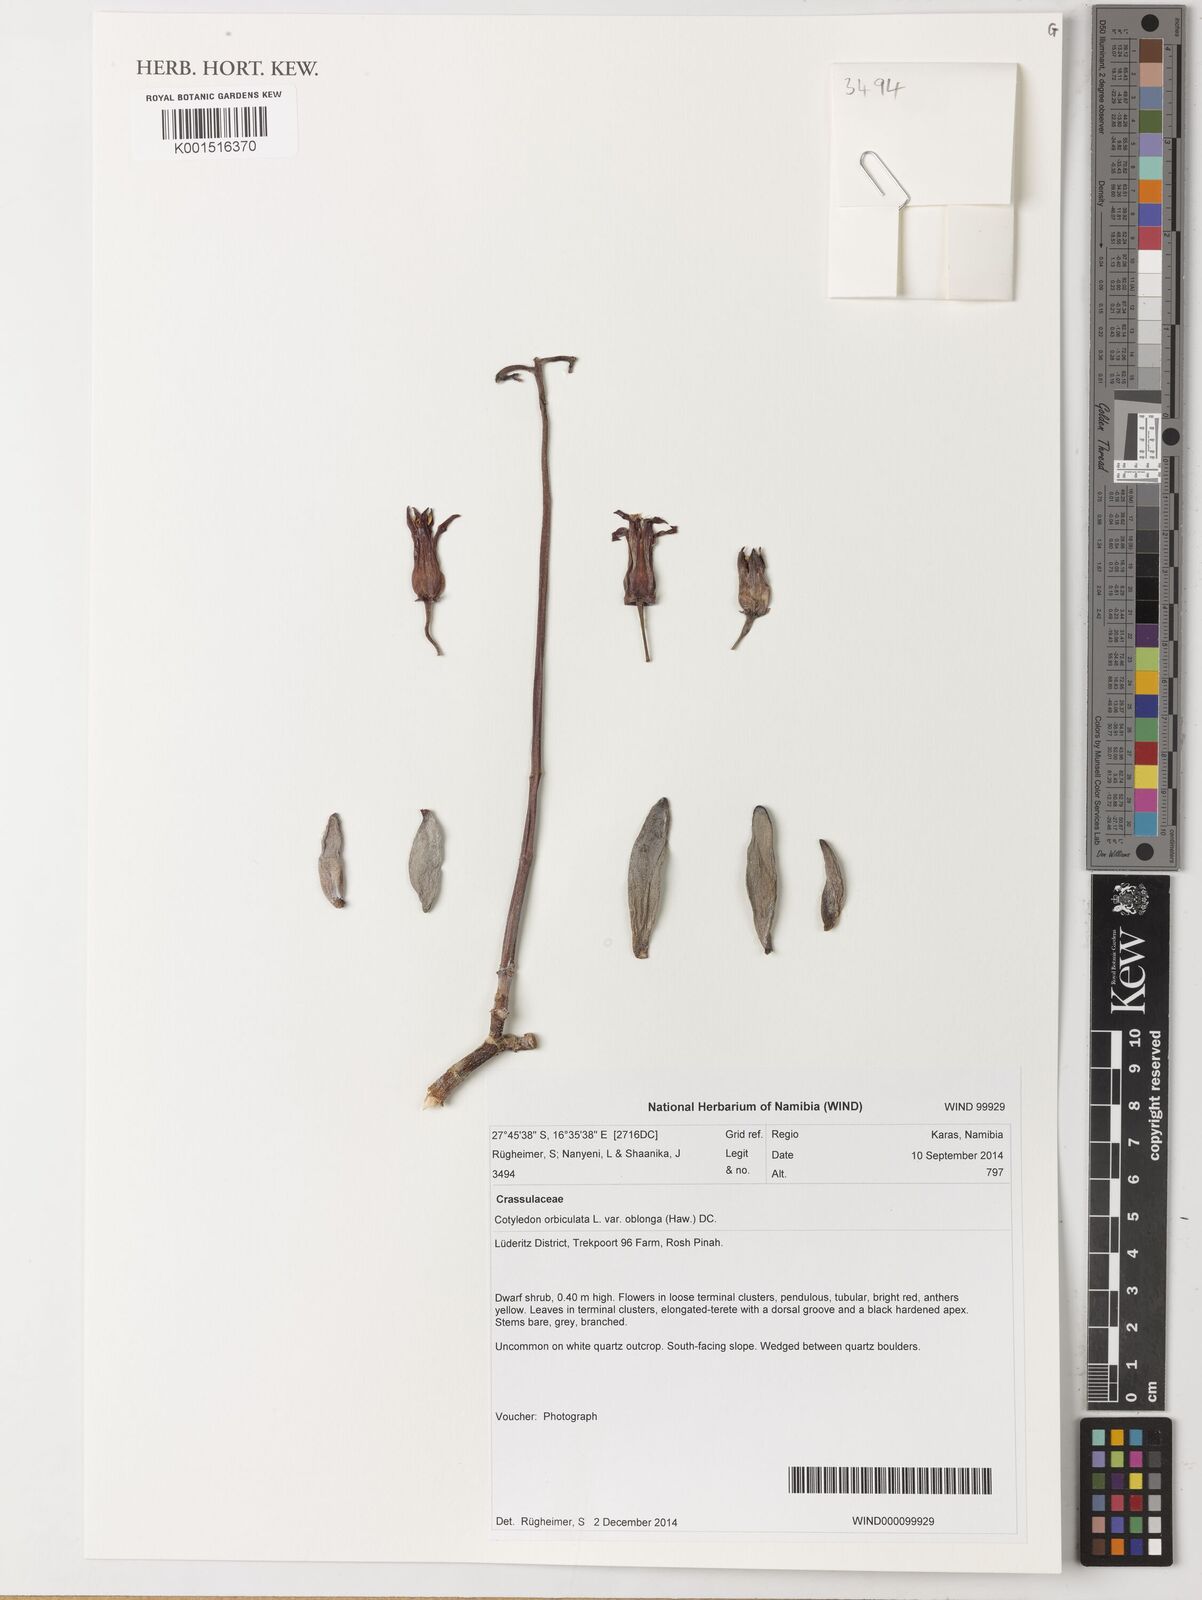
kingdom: Plantae
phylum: Tracheophyta
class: Magnoliopsida
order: Saxifragales
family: Crassulaceae
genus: Cotyledon
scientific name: Cotyledon orbiculata
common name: Pig's ear
